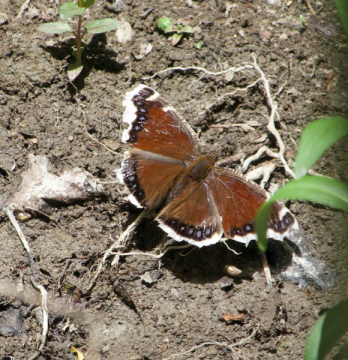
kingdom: Animalia
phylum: Arthropoda
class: Insecta
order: Lepidoptera
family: Nymphalidae
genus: Nymphalis
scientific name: Nymphalis antiopa
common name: Mourning Cloak
